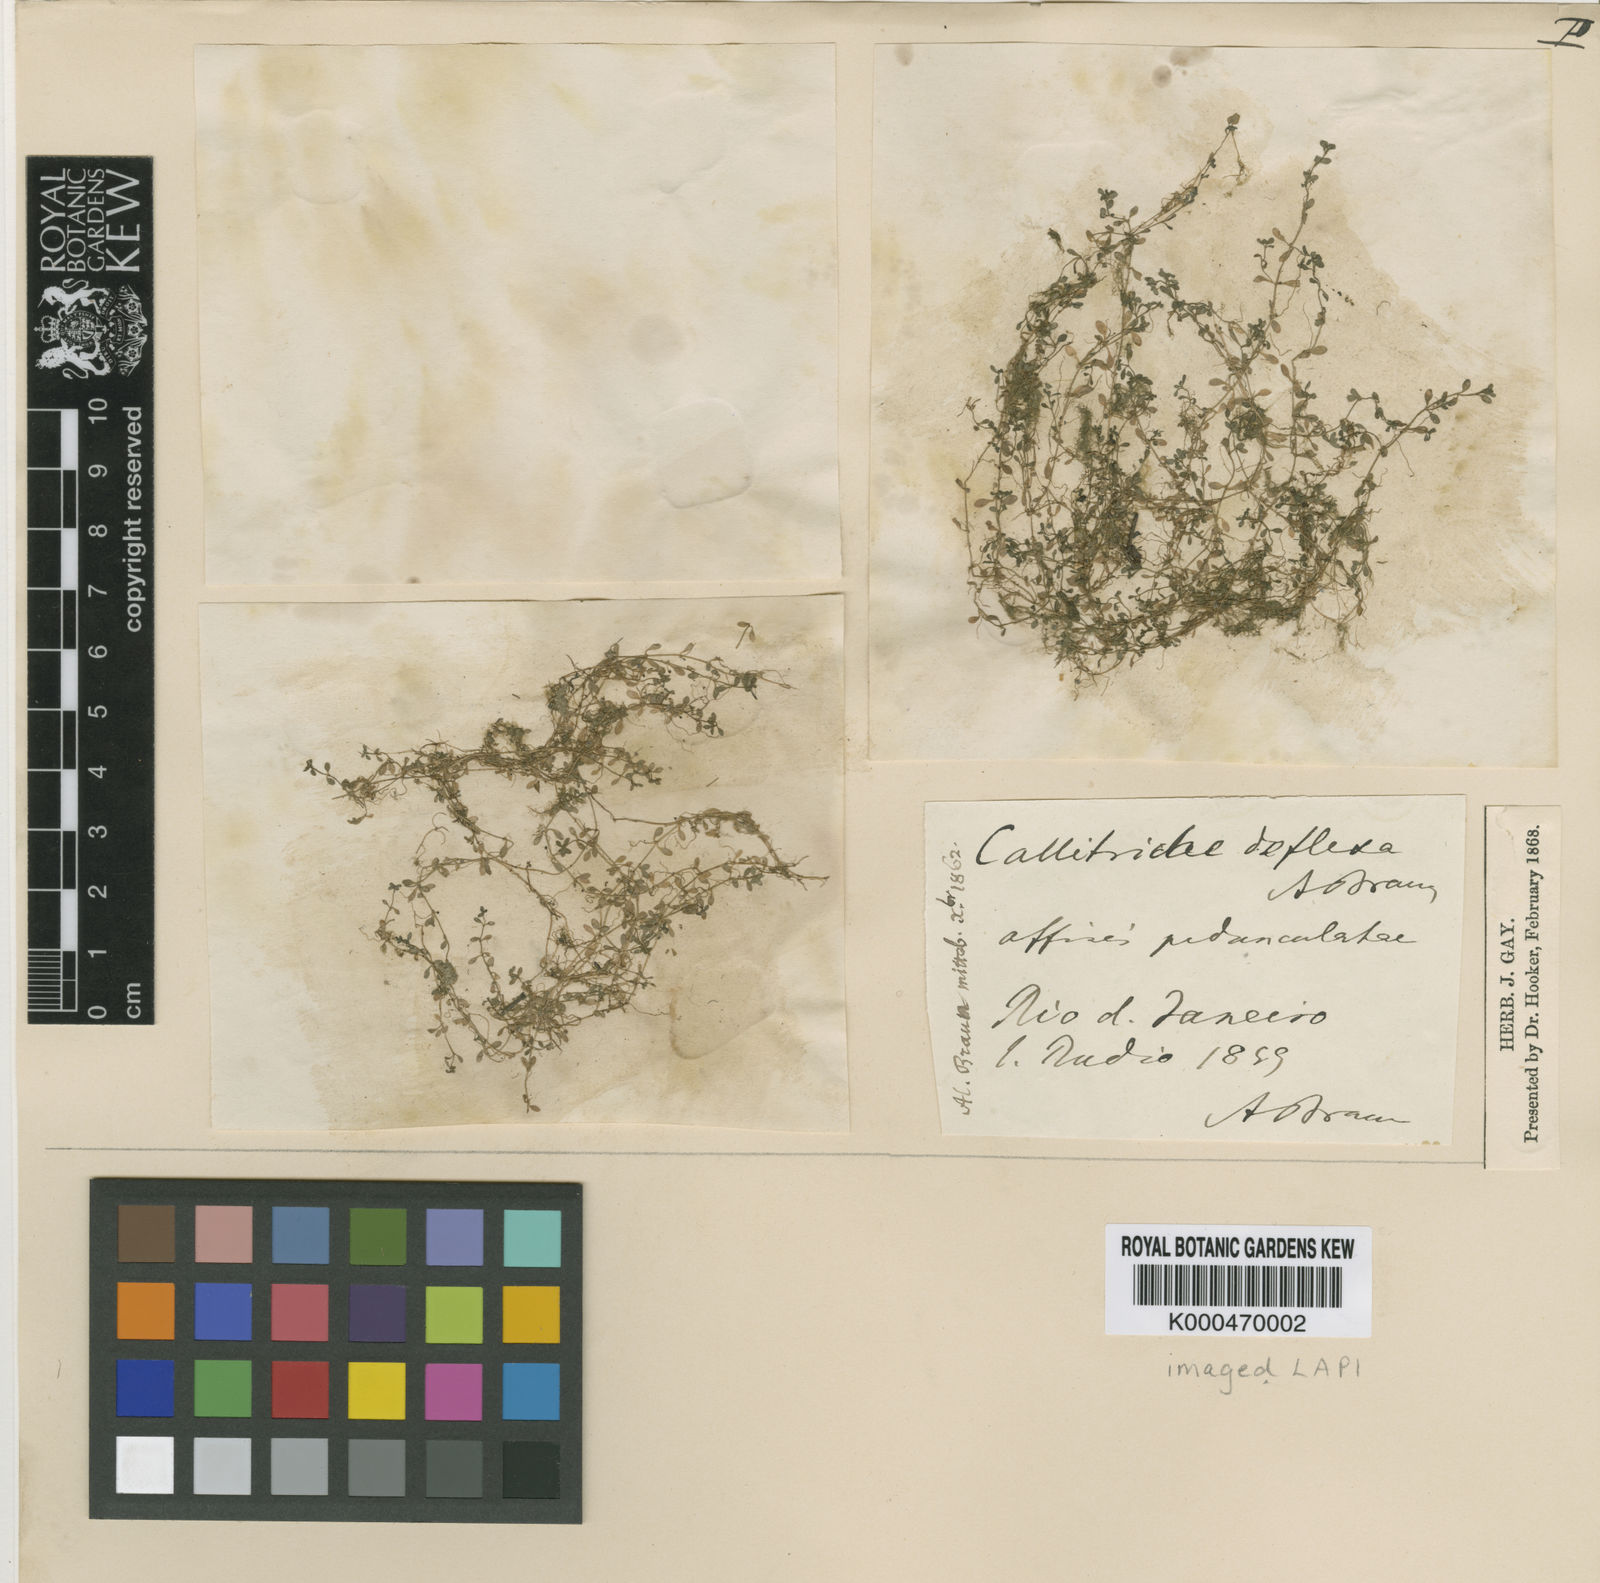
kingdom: Plantae
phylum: Tracheophyta
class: Magnoliopsida
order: Lamiales
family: Plantaginaceae
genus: Callitriche
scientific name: Callitriche deflexa
